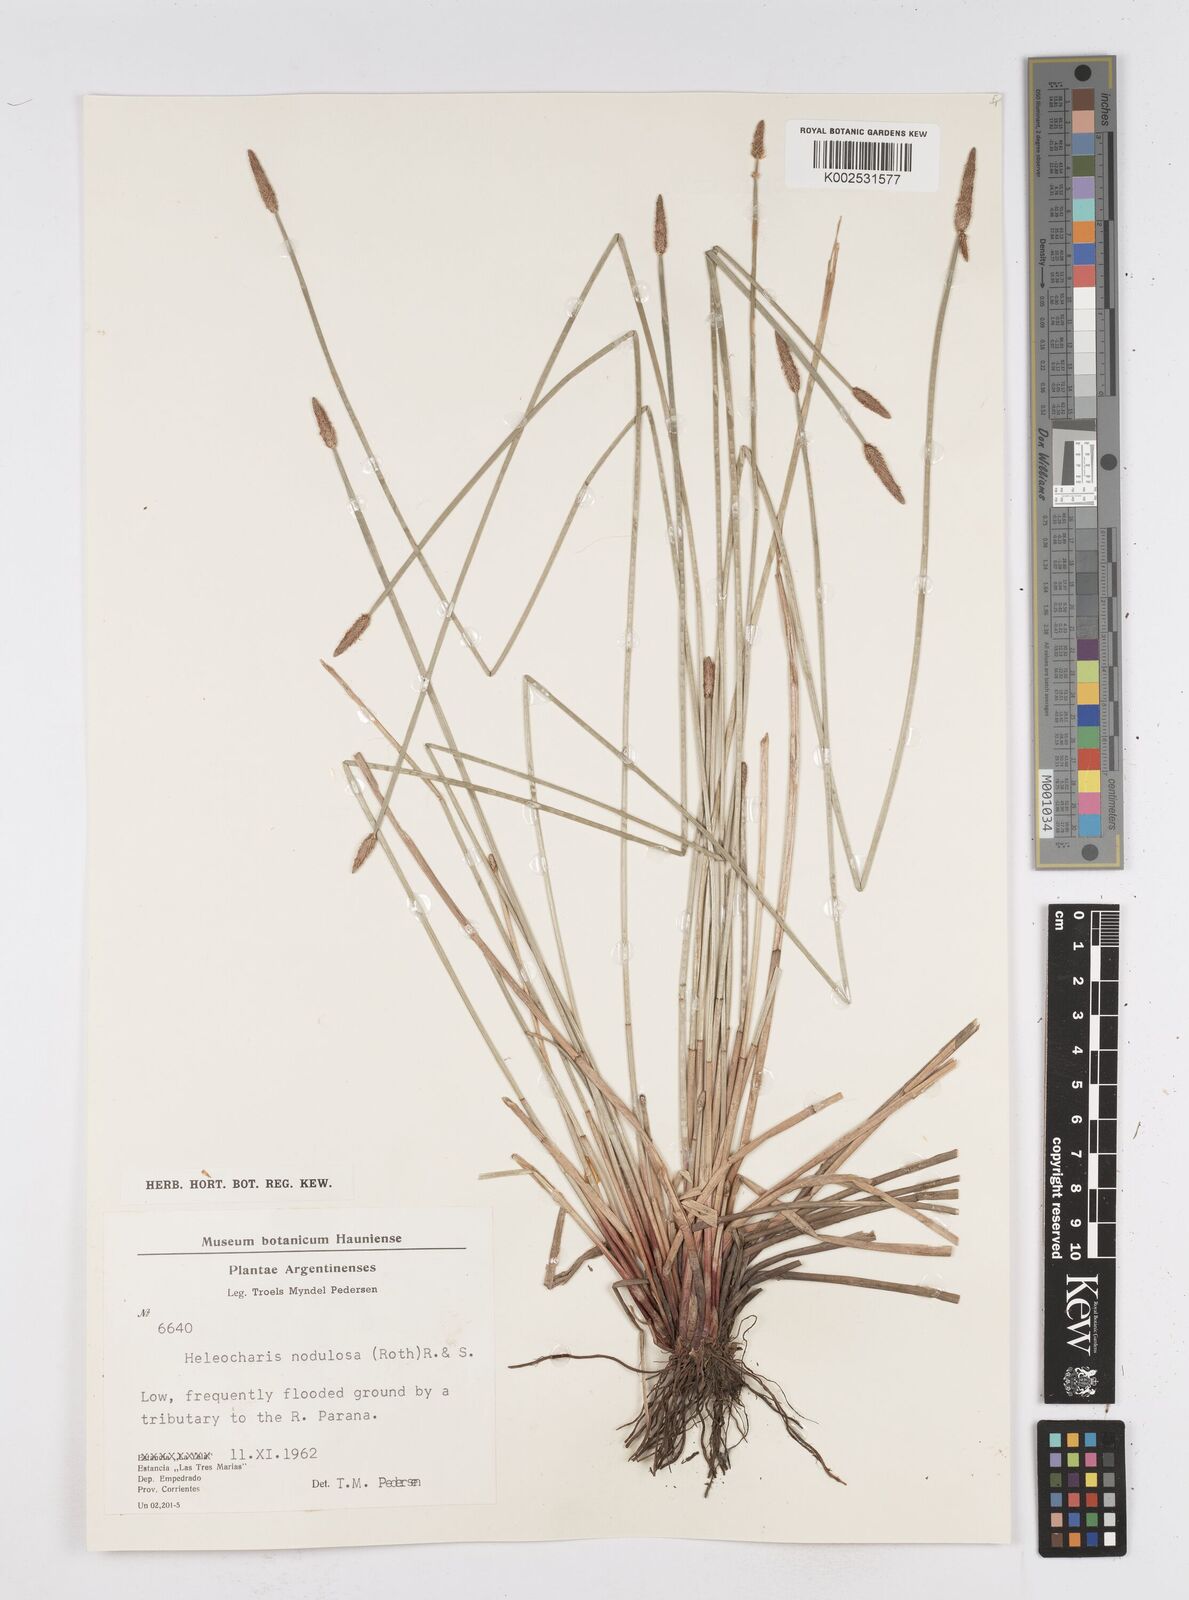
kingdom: Plantae
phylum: Tracheophyta
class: Liliopsida
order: Poales
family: Cyperaceae
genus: Eleocharis
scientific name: Eleocharis montana
